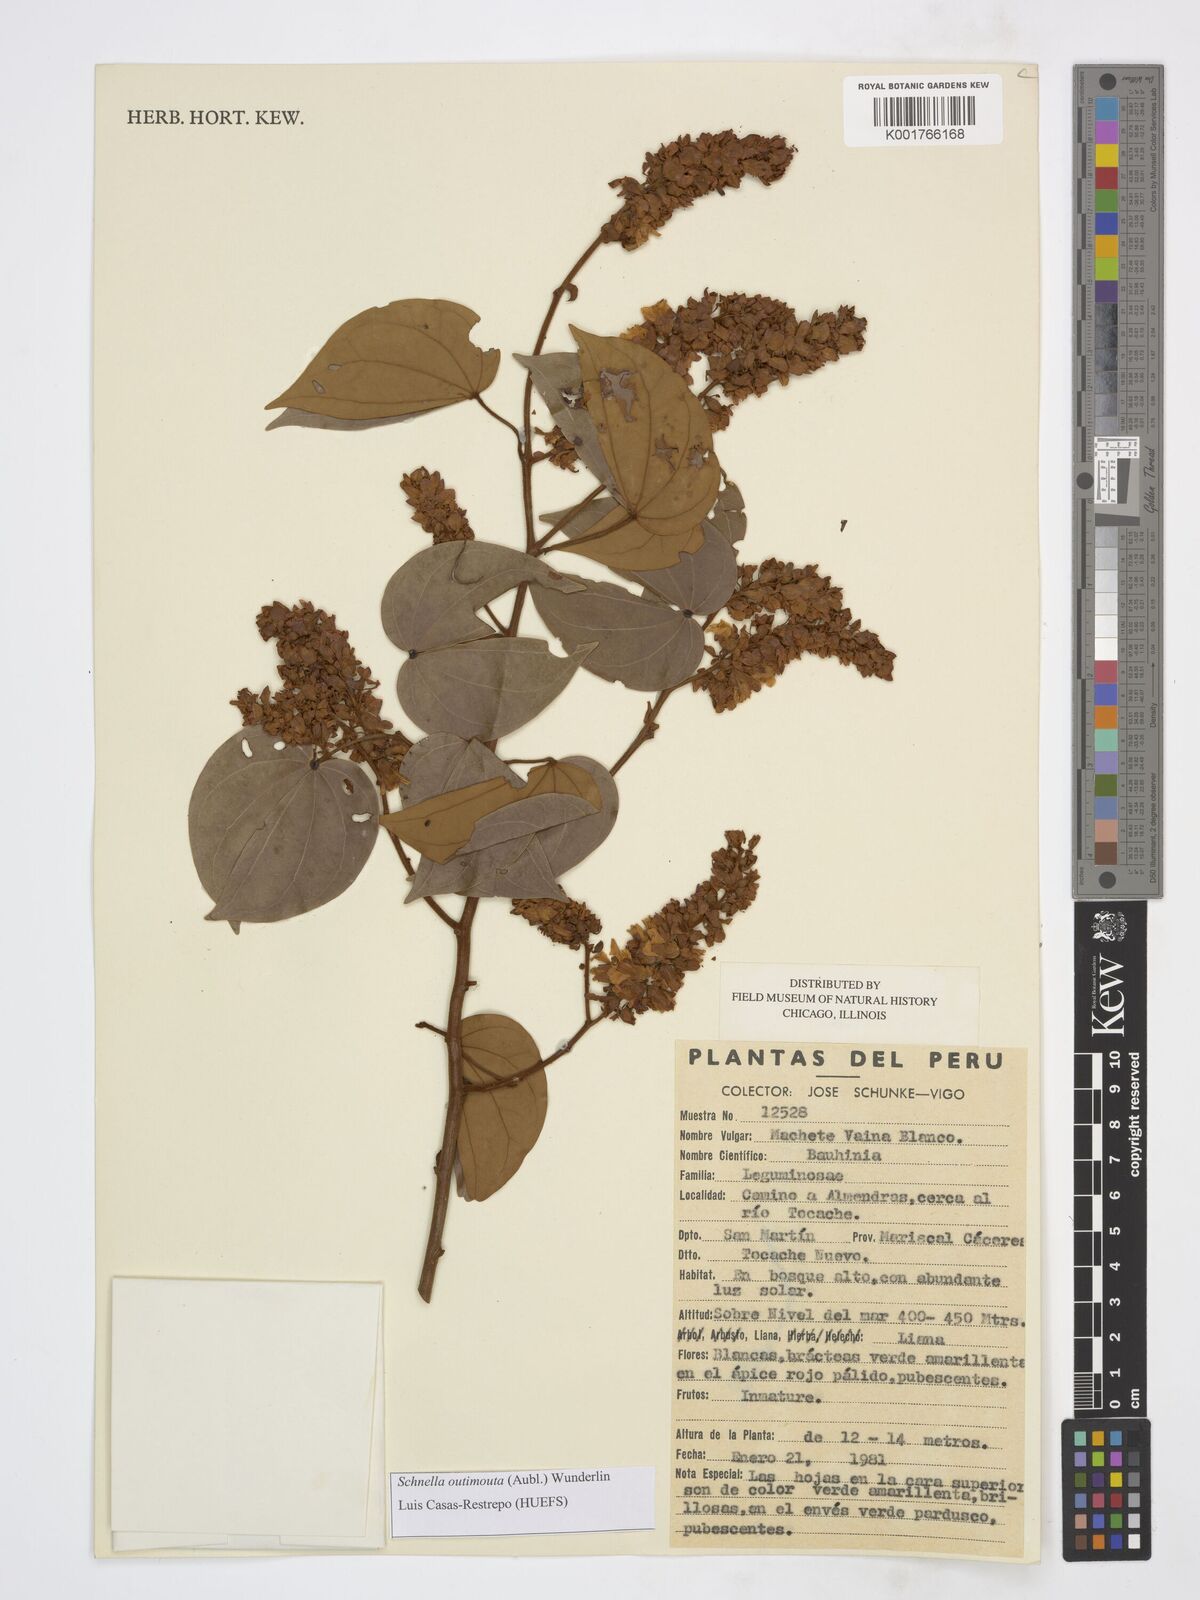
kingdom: Plantae
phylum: Tracheophyta
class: Magnoliopsida
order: Fabales
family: Fabaceae
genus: Schnella
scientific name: Schnella outimouta
